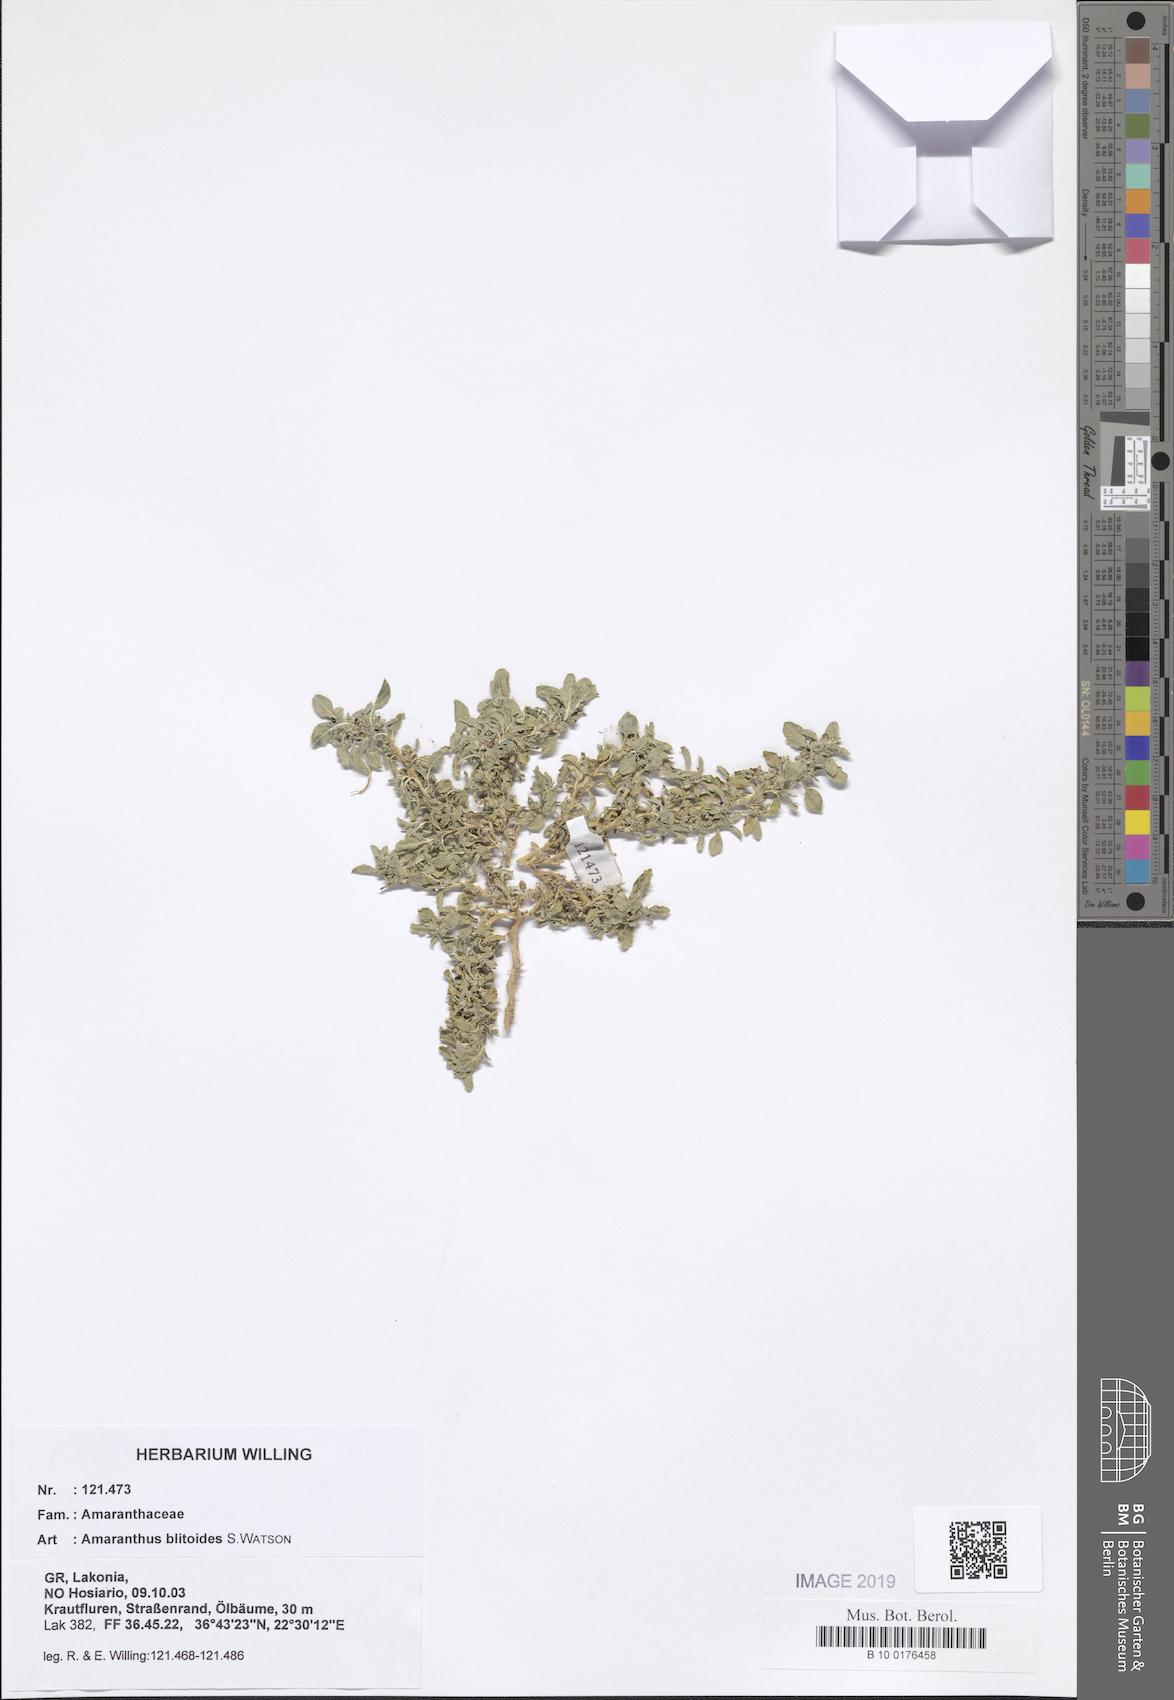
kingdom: Plantae
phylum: Tracheophyta
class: Magnoliopsida
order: Caryophyllales
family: Amaranthaceae
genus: Amaranthus
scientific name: Amaranthus blitoides
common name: Prostrate pigweed
